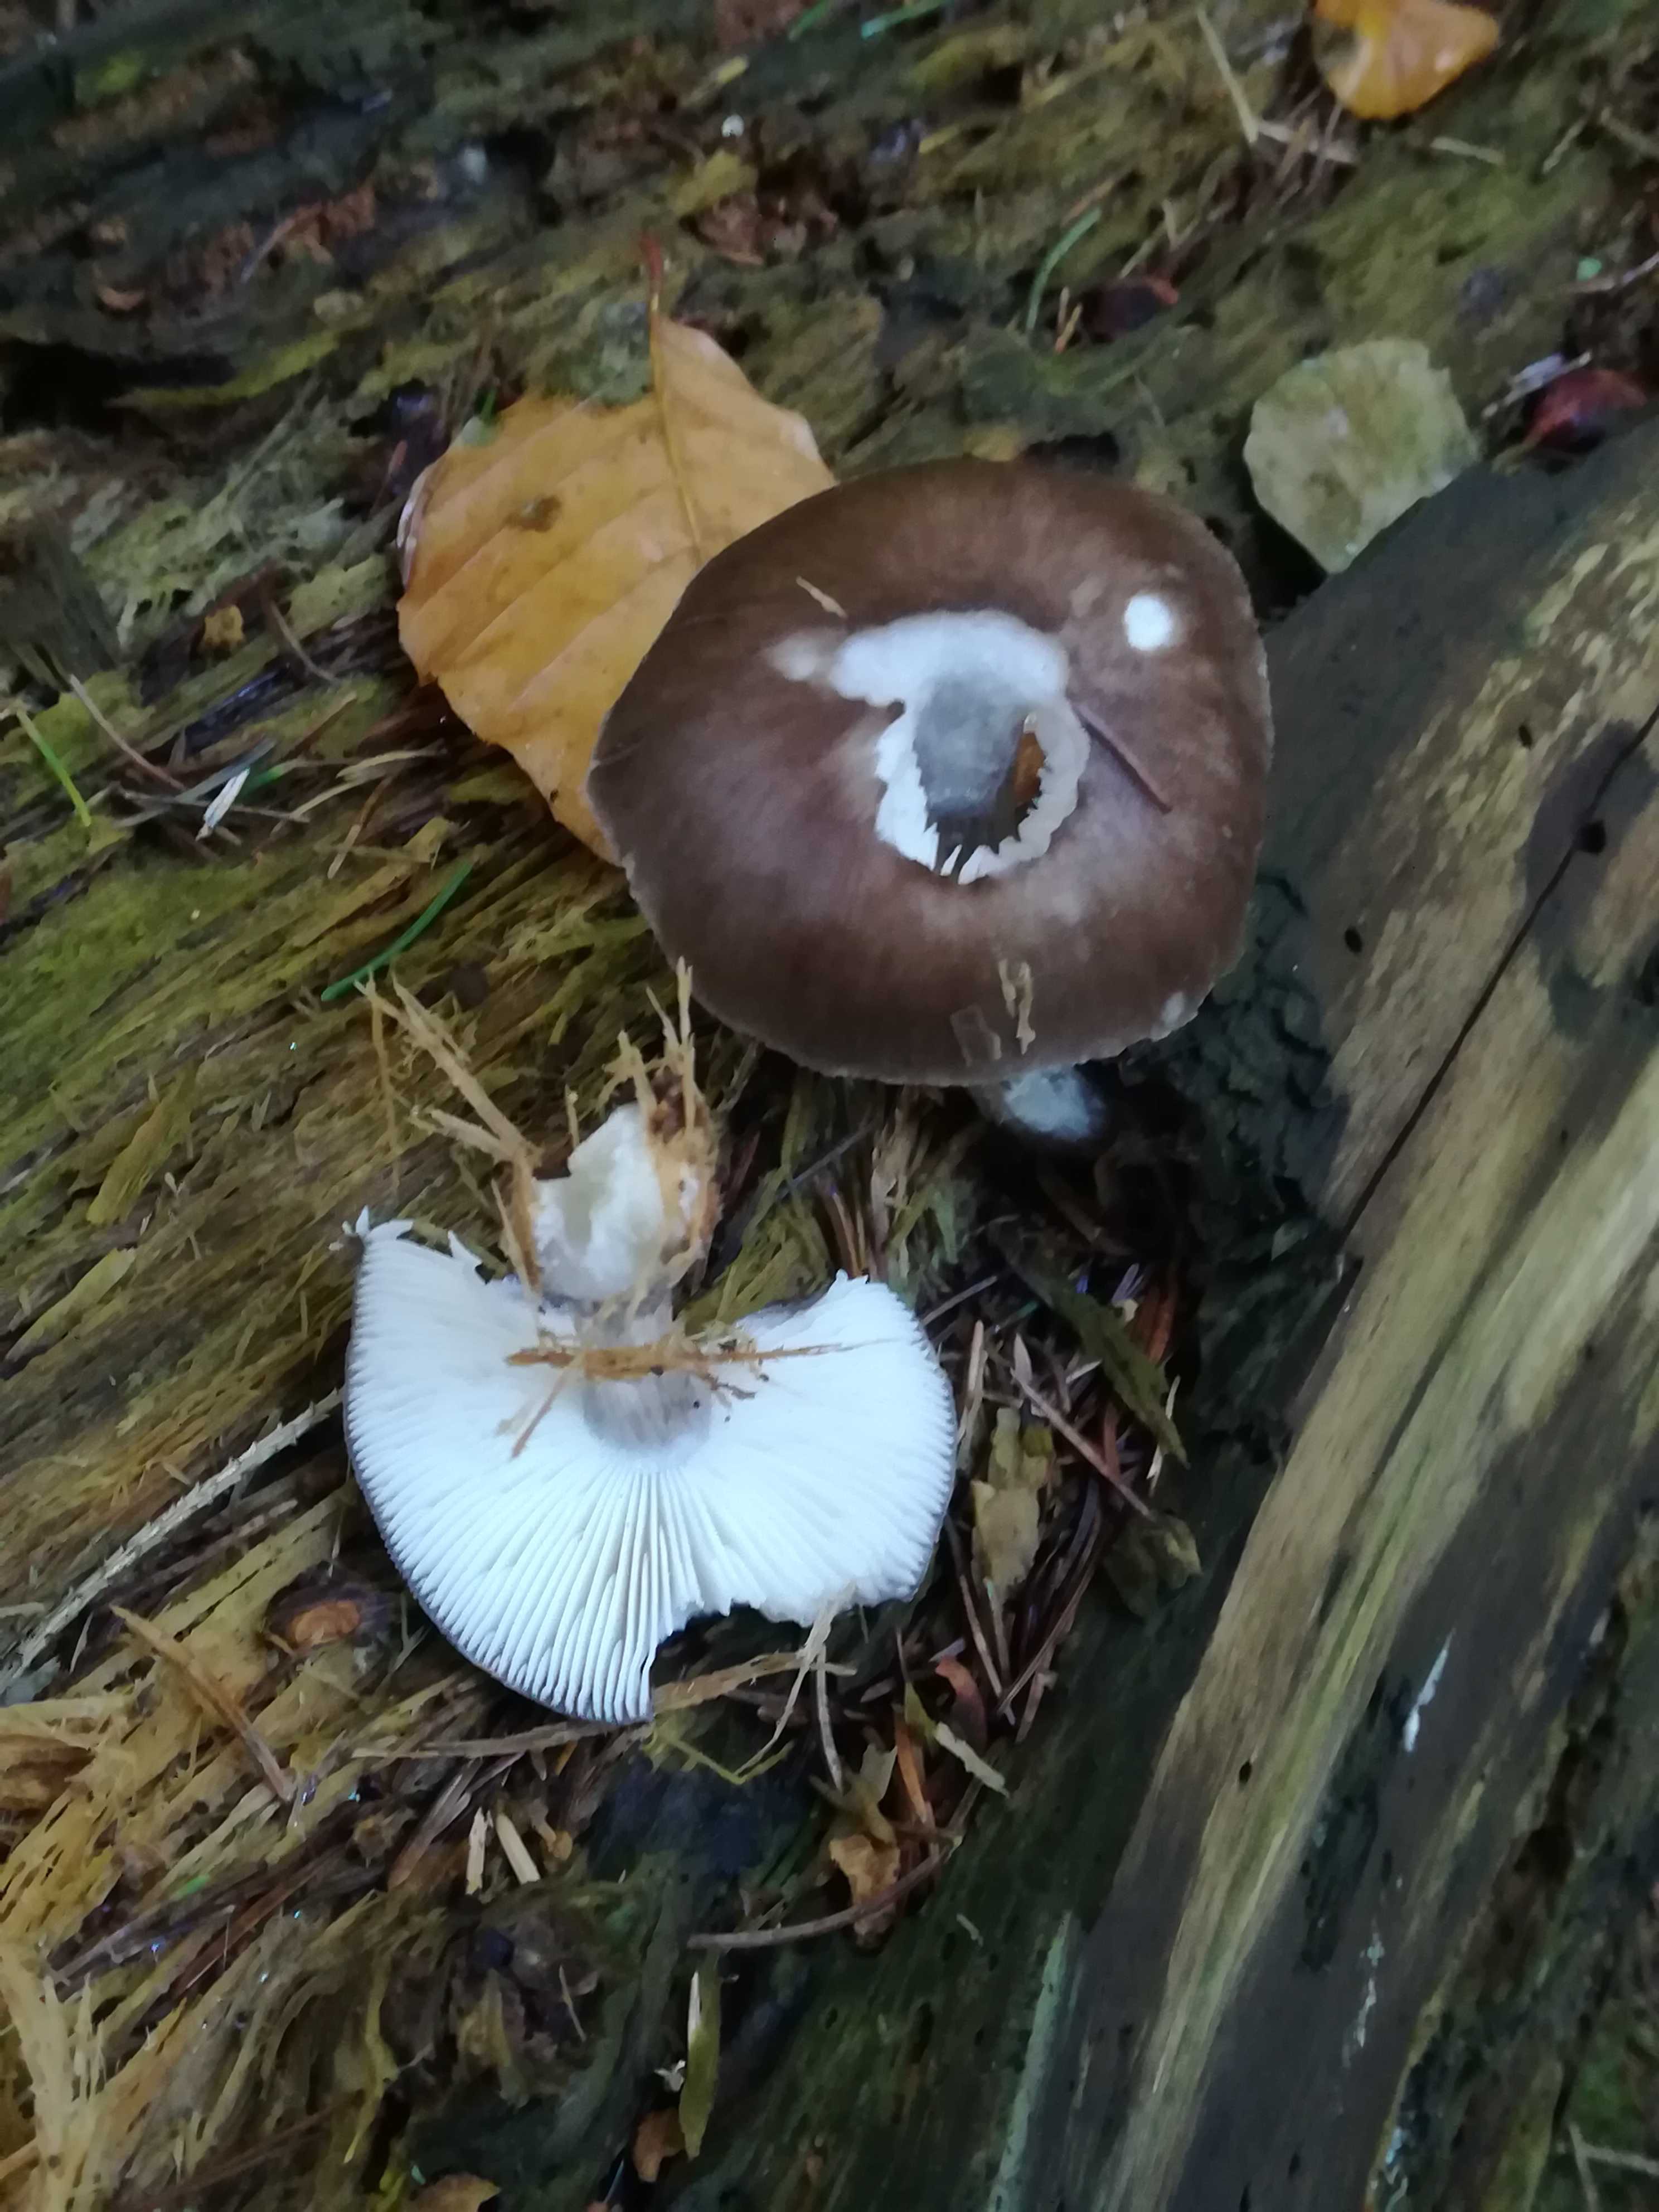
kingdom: Fungi
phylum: Basidiomycota
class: Agaricomycetes
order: Agaricales
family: Pluteaceae
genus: Pluteus
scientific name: Pluteus cervinus
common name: sodfarvet skærmhat
